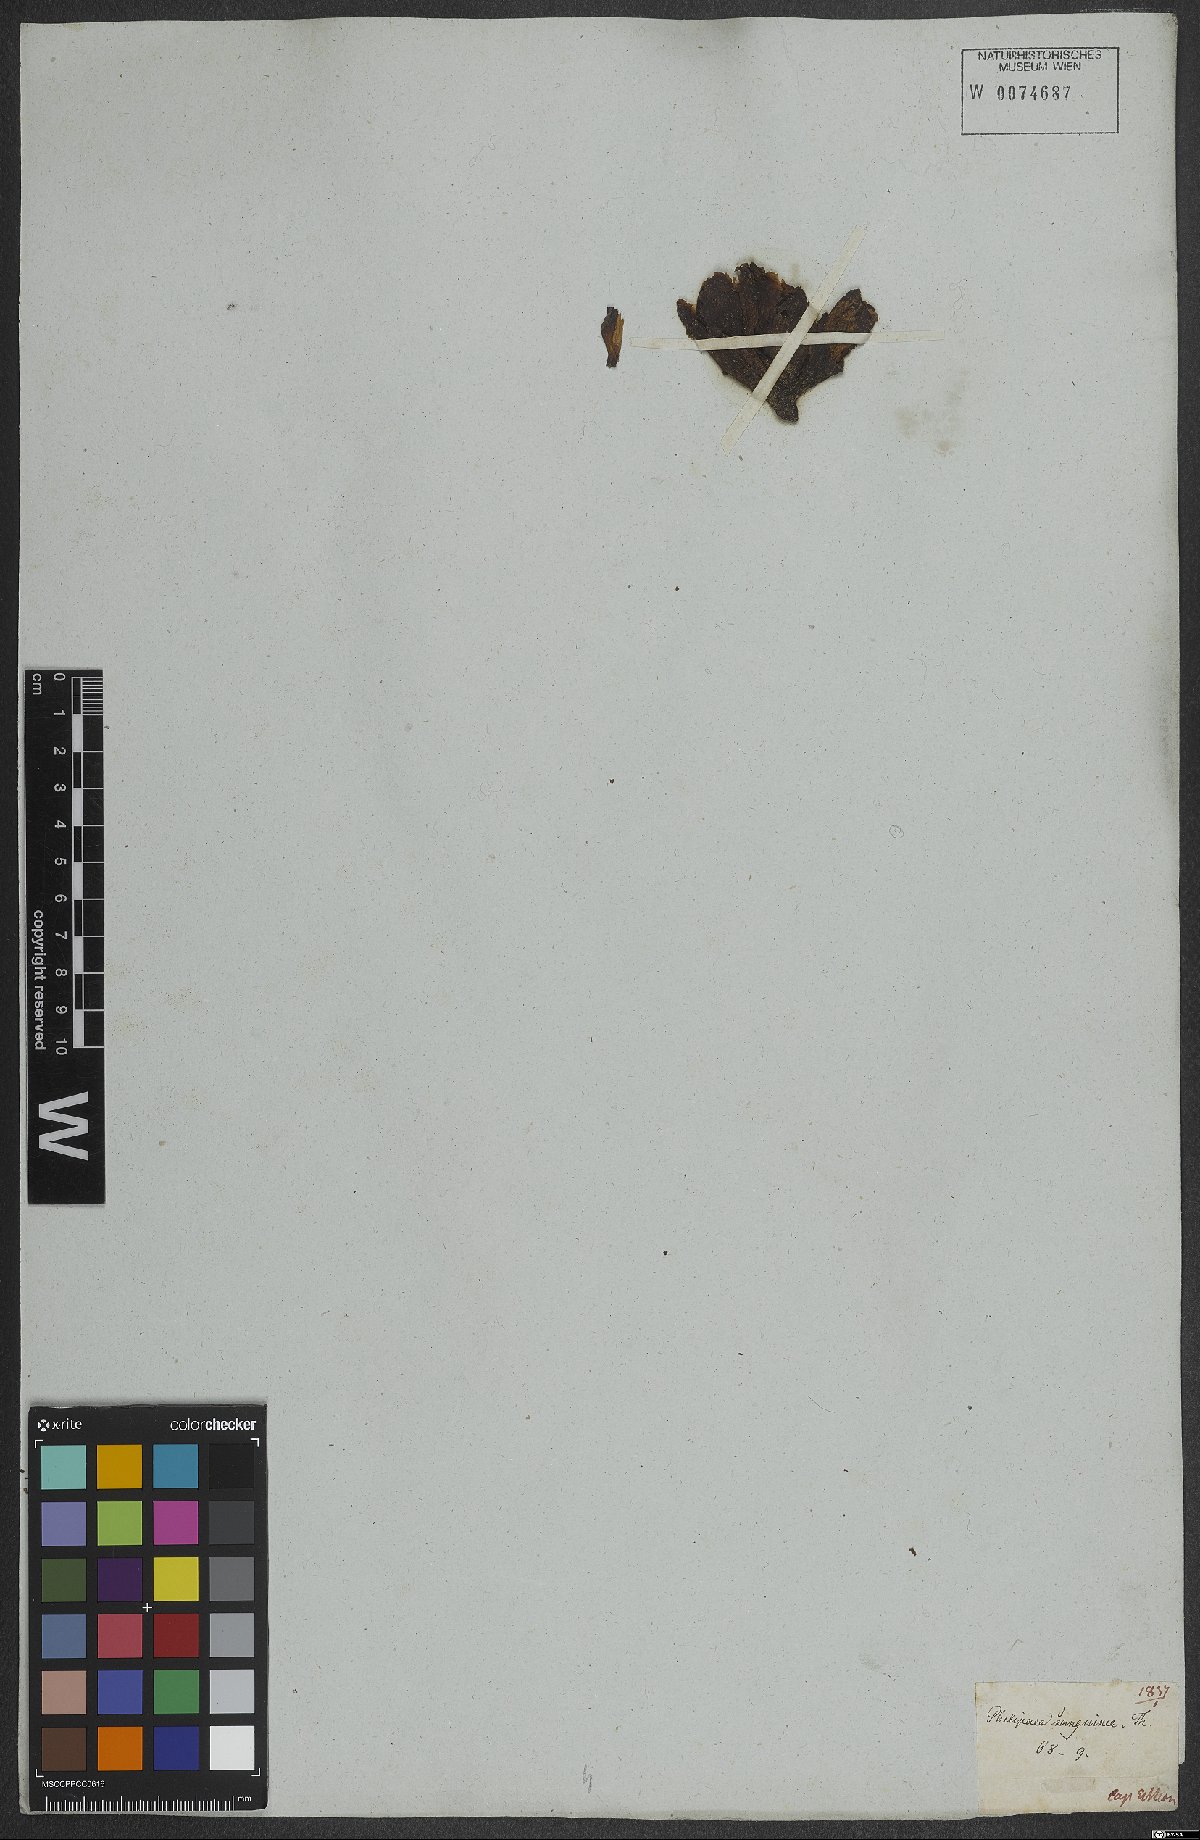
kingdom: Plantae
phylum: Tracheophyta
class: Magnoliopsida
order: Lamiales
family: Orobanchaceae
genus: Hyobanche
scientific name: Hyobanche sanguinea
